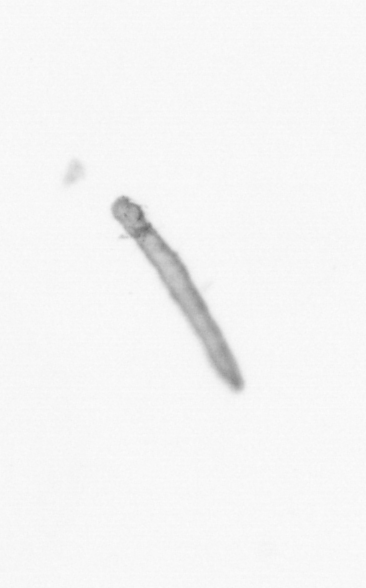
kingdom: Animalia
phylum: Arthropoda
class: Copepoda
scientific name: Copepoda
